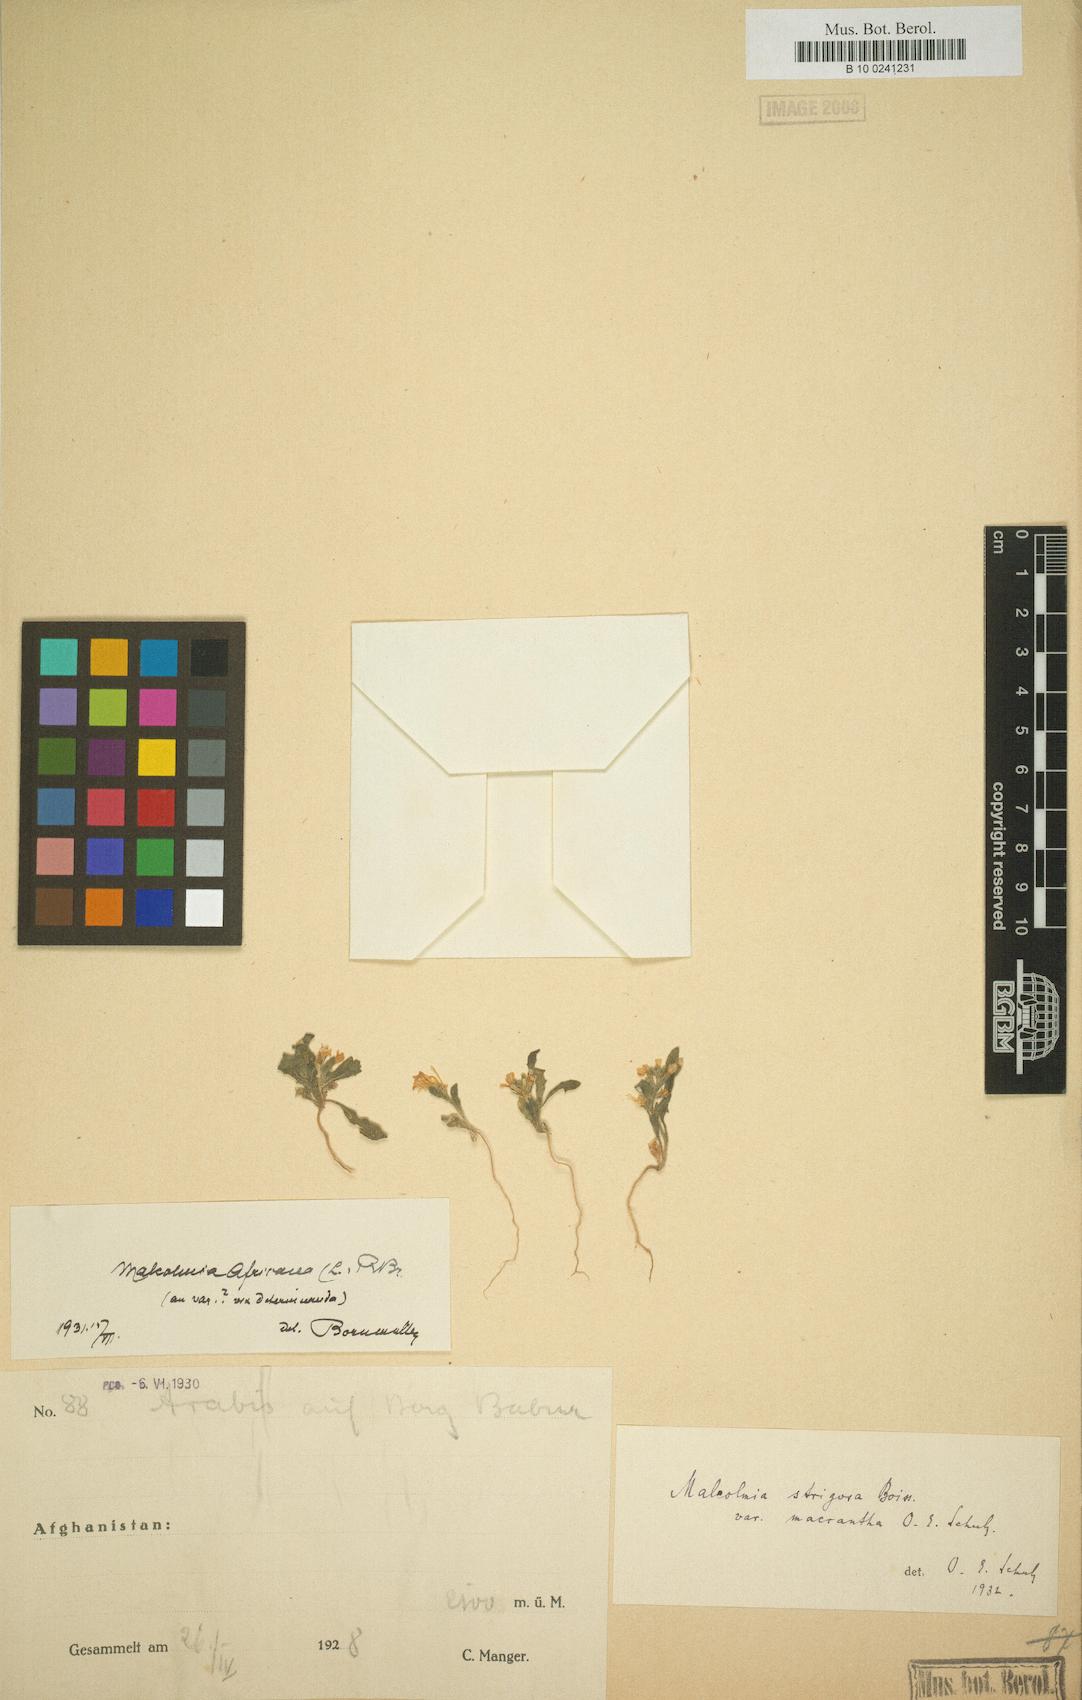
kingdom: Plantae
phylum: Tracheophyta
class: Magnoliopsida
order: Brassicales
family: Brassicaceae
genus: Strigosella
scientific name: Strigosella cabulica
